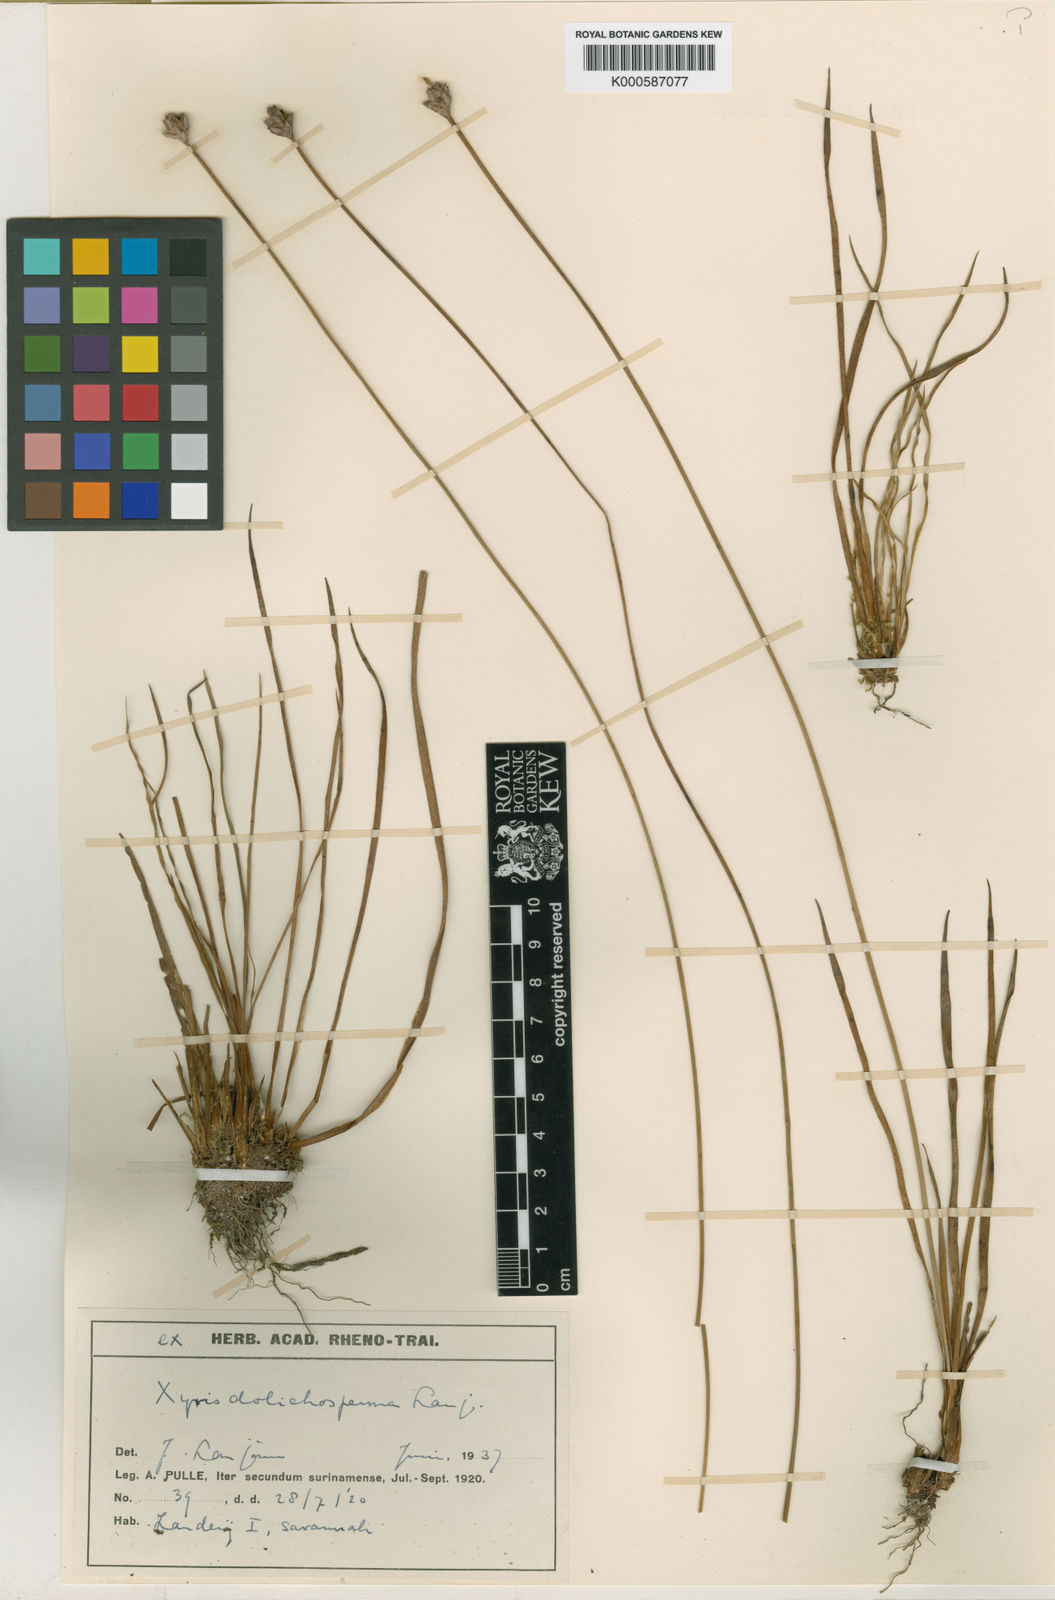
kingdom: Plantae
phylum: Tracheophyta
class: Liliopsida
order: Poales
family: Xyridaceae
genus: Xyris
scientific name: Xyris fallax
